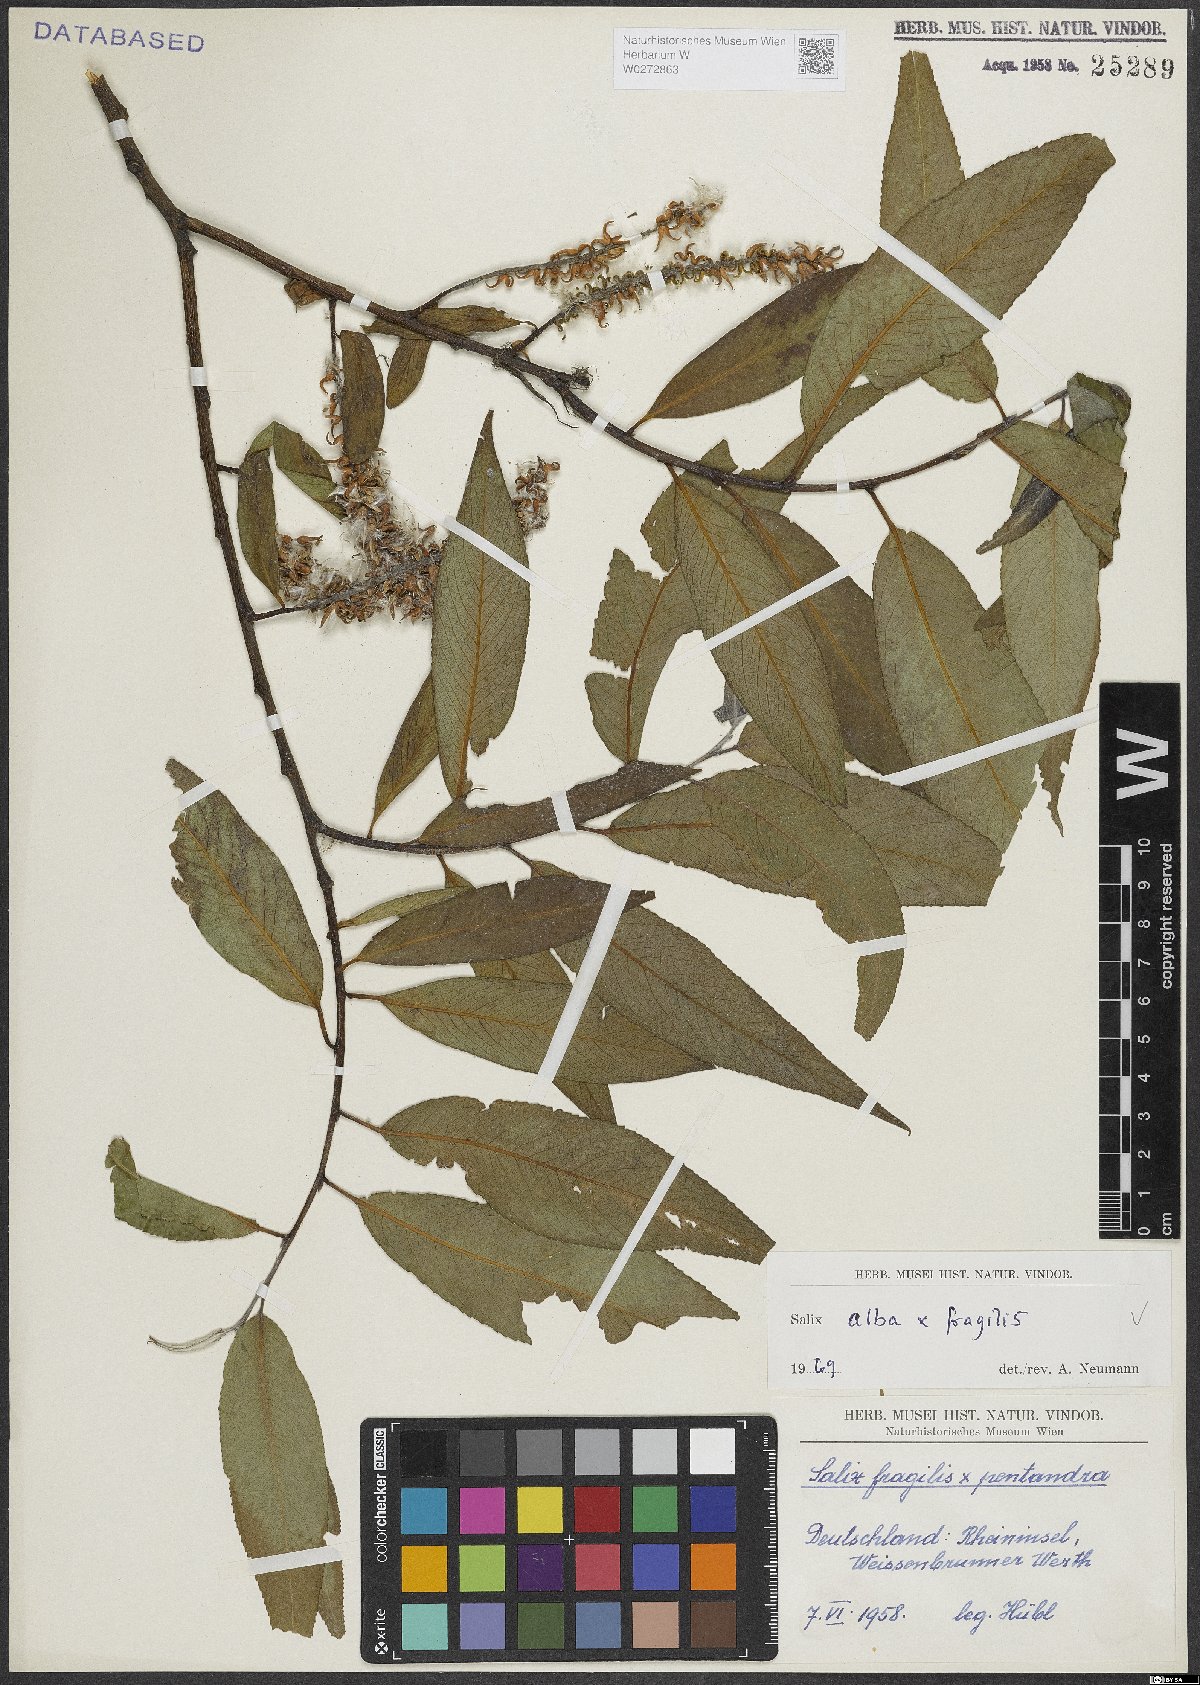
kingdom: Plantae
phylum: Tracheophyta
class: Magnoliopsida
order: Malpighiales
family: Salicaceae
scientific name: Salicaceae
